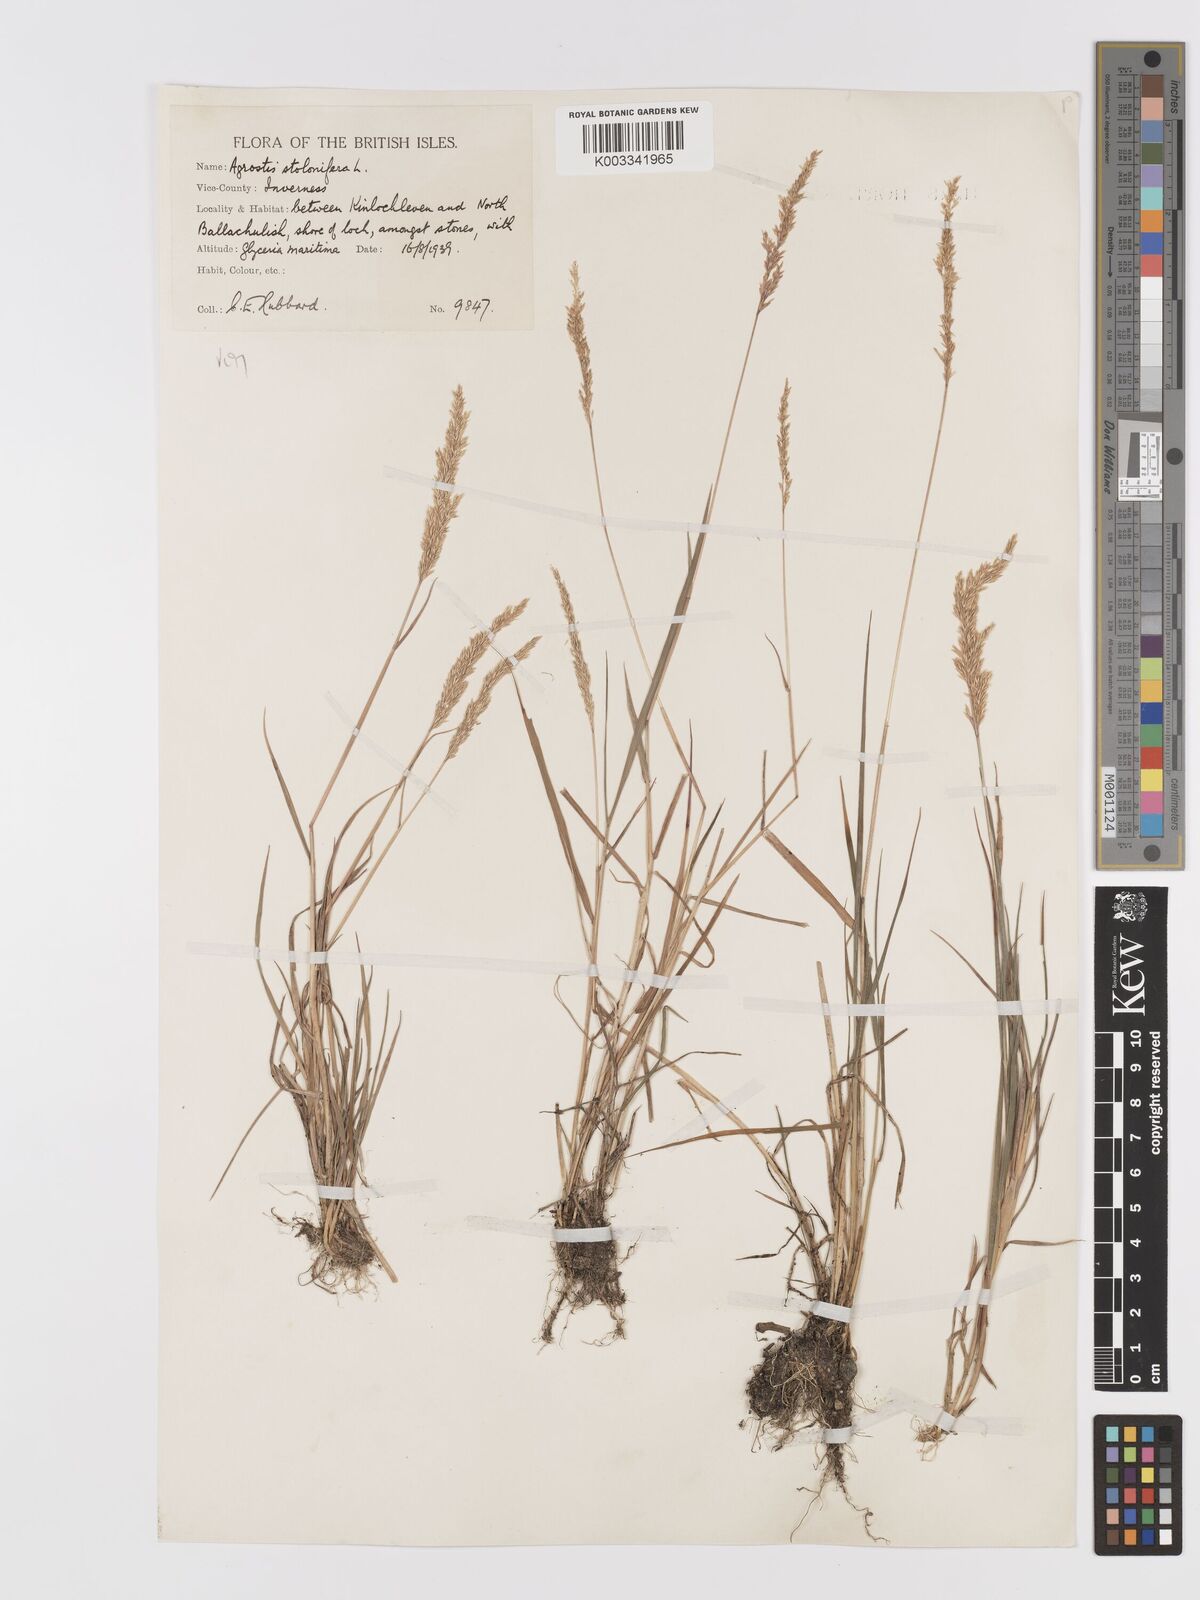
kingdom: Plantae
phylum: Tracheophyta
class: Liliopsida
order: Poales
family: Poaceae
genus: Agrostis
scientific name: Agrostis stolonifera
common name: Creeping bentgrass
